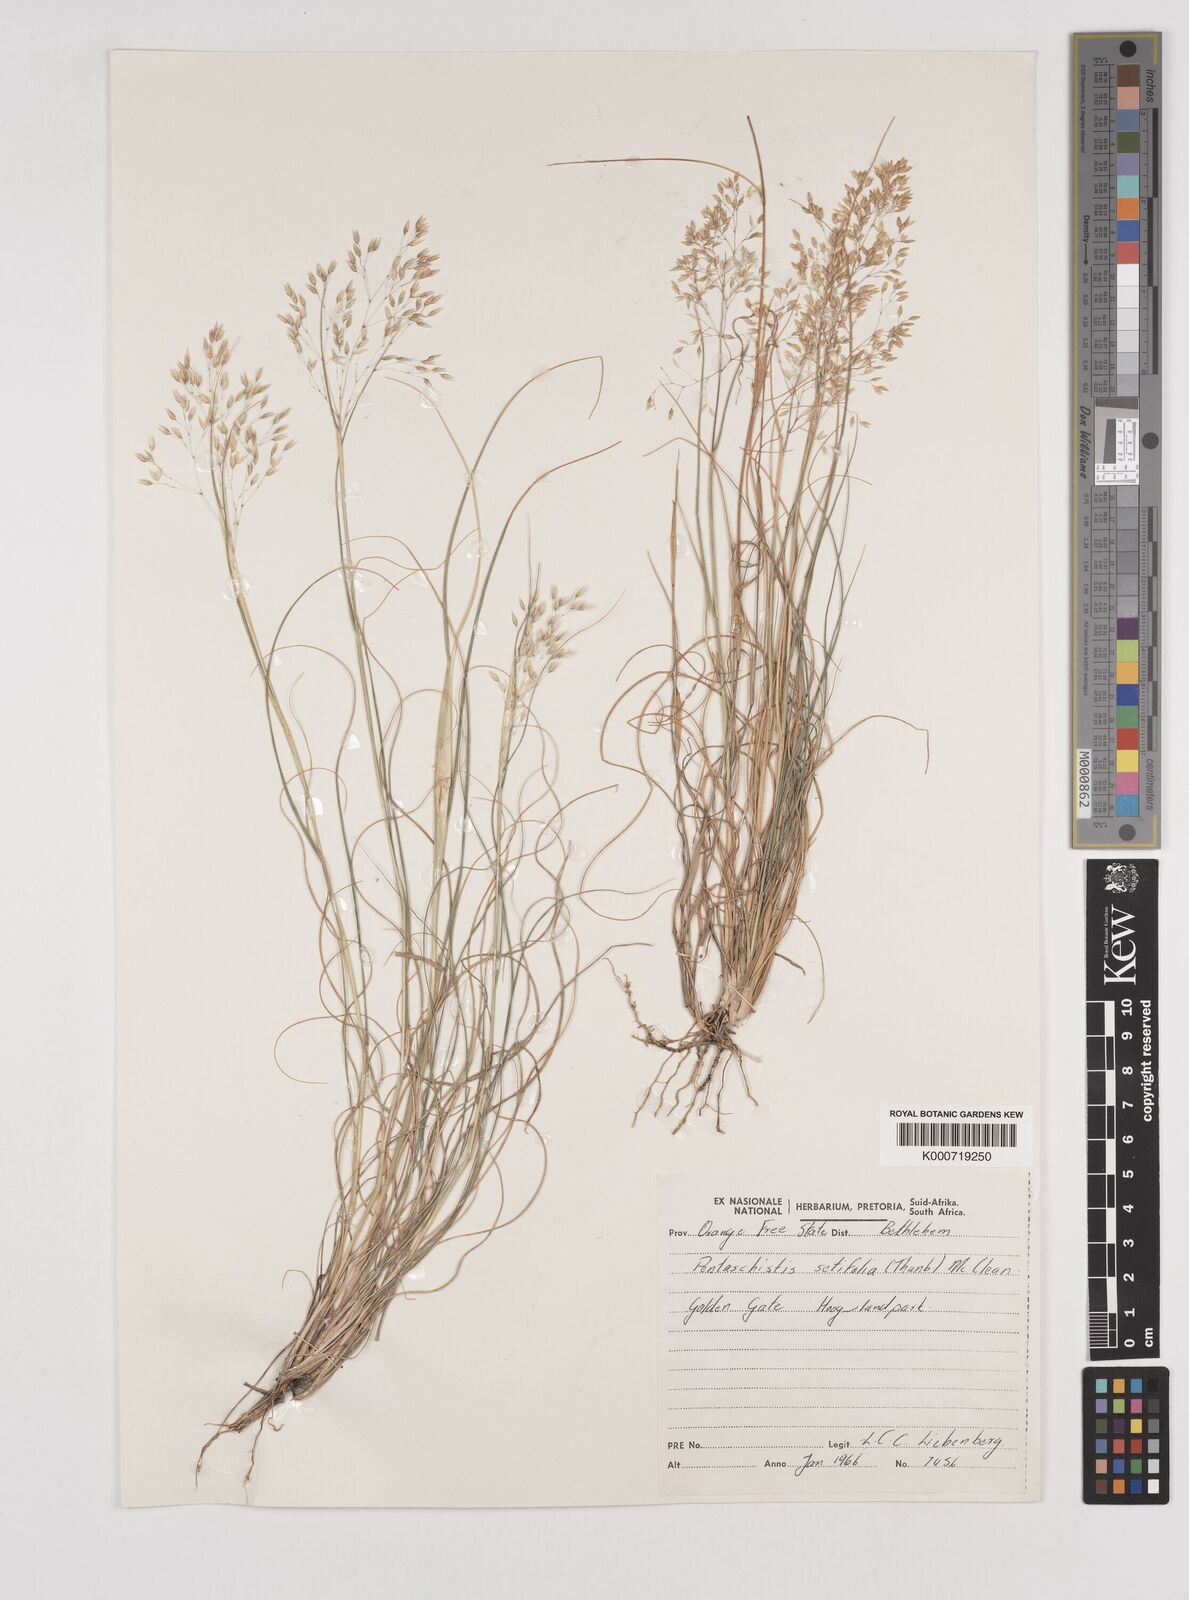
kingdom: Plantae
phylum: Tracheophyta
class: Liliopsida
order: Poales
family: Poaceae
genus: Pentameris
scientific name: Pentameris setifolia
